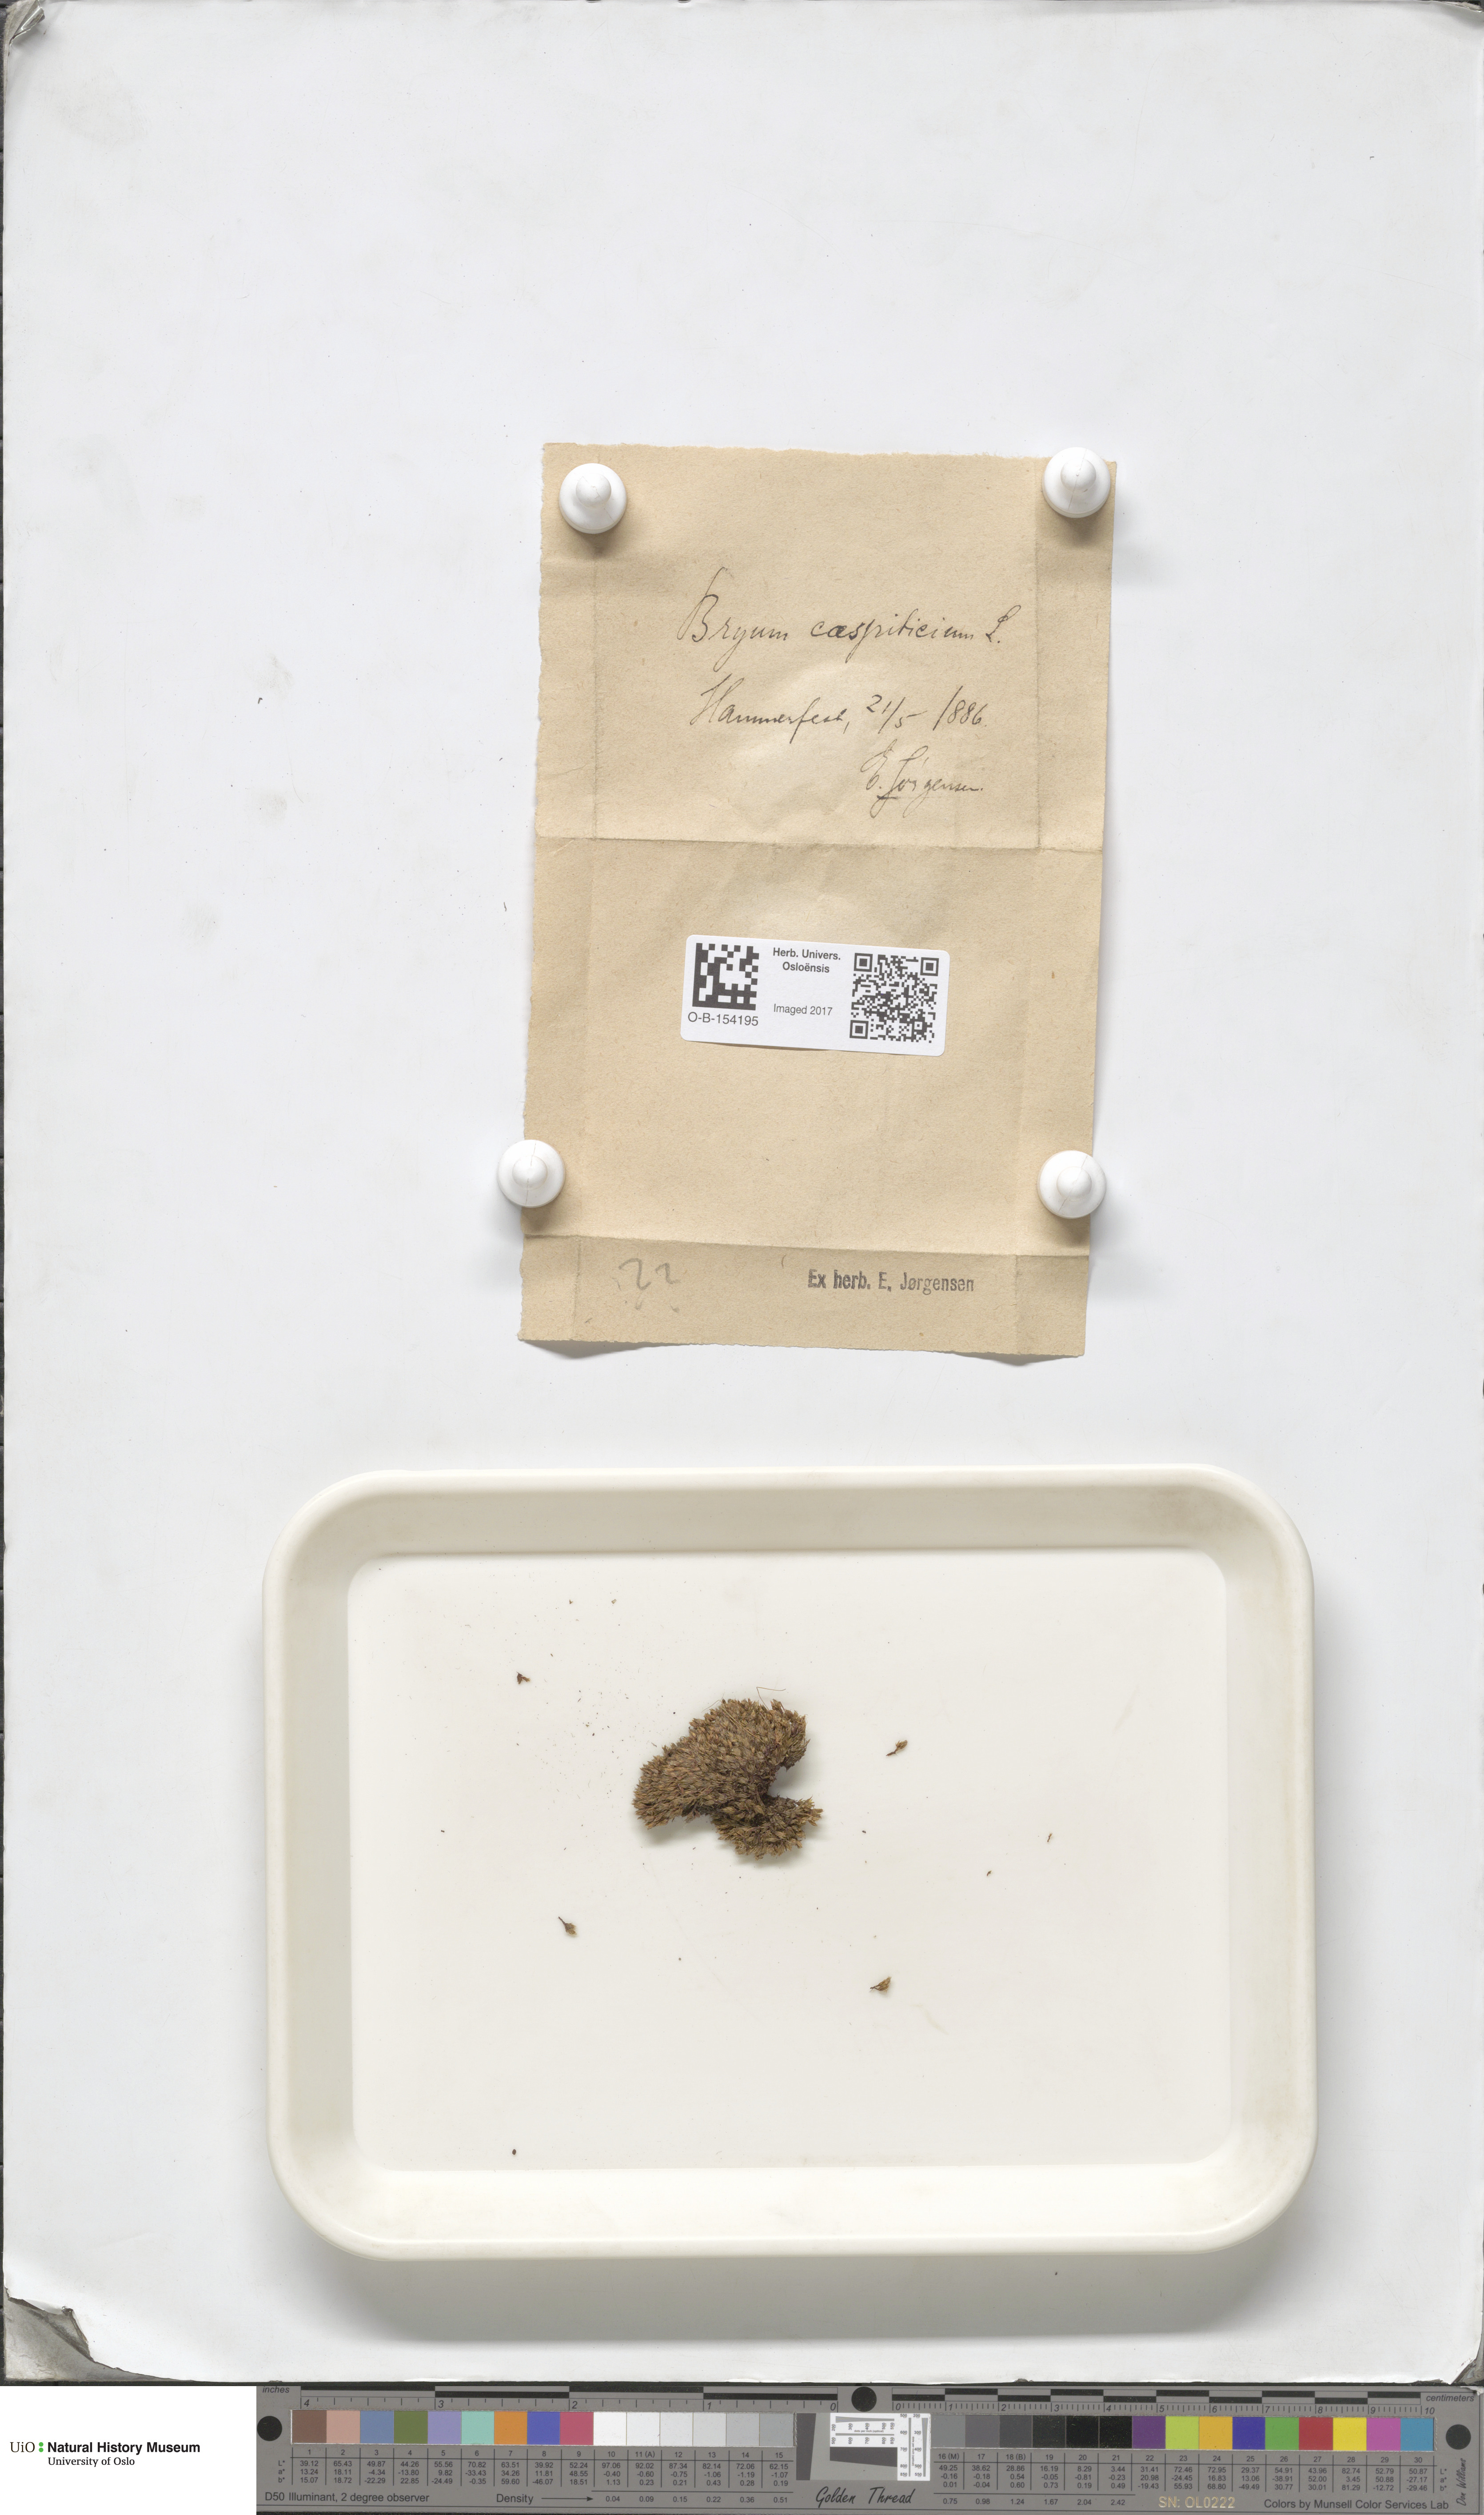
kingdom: Plantae
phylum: Bryophyta
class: Bryopsida
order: Bryales
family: Bryaceae
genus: Gemmabryum
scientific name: Gemmabryum caespiticium
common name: Handbell moss
